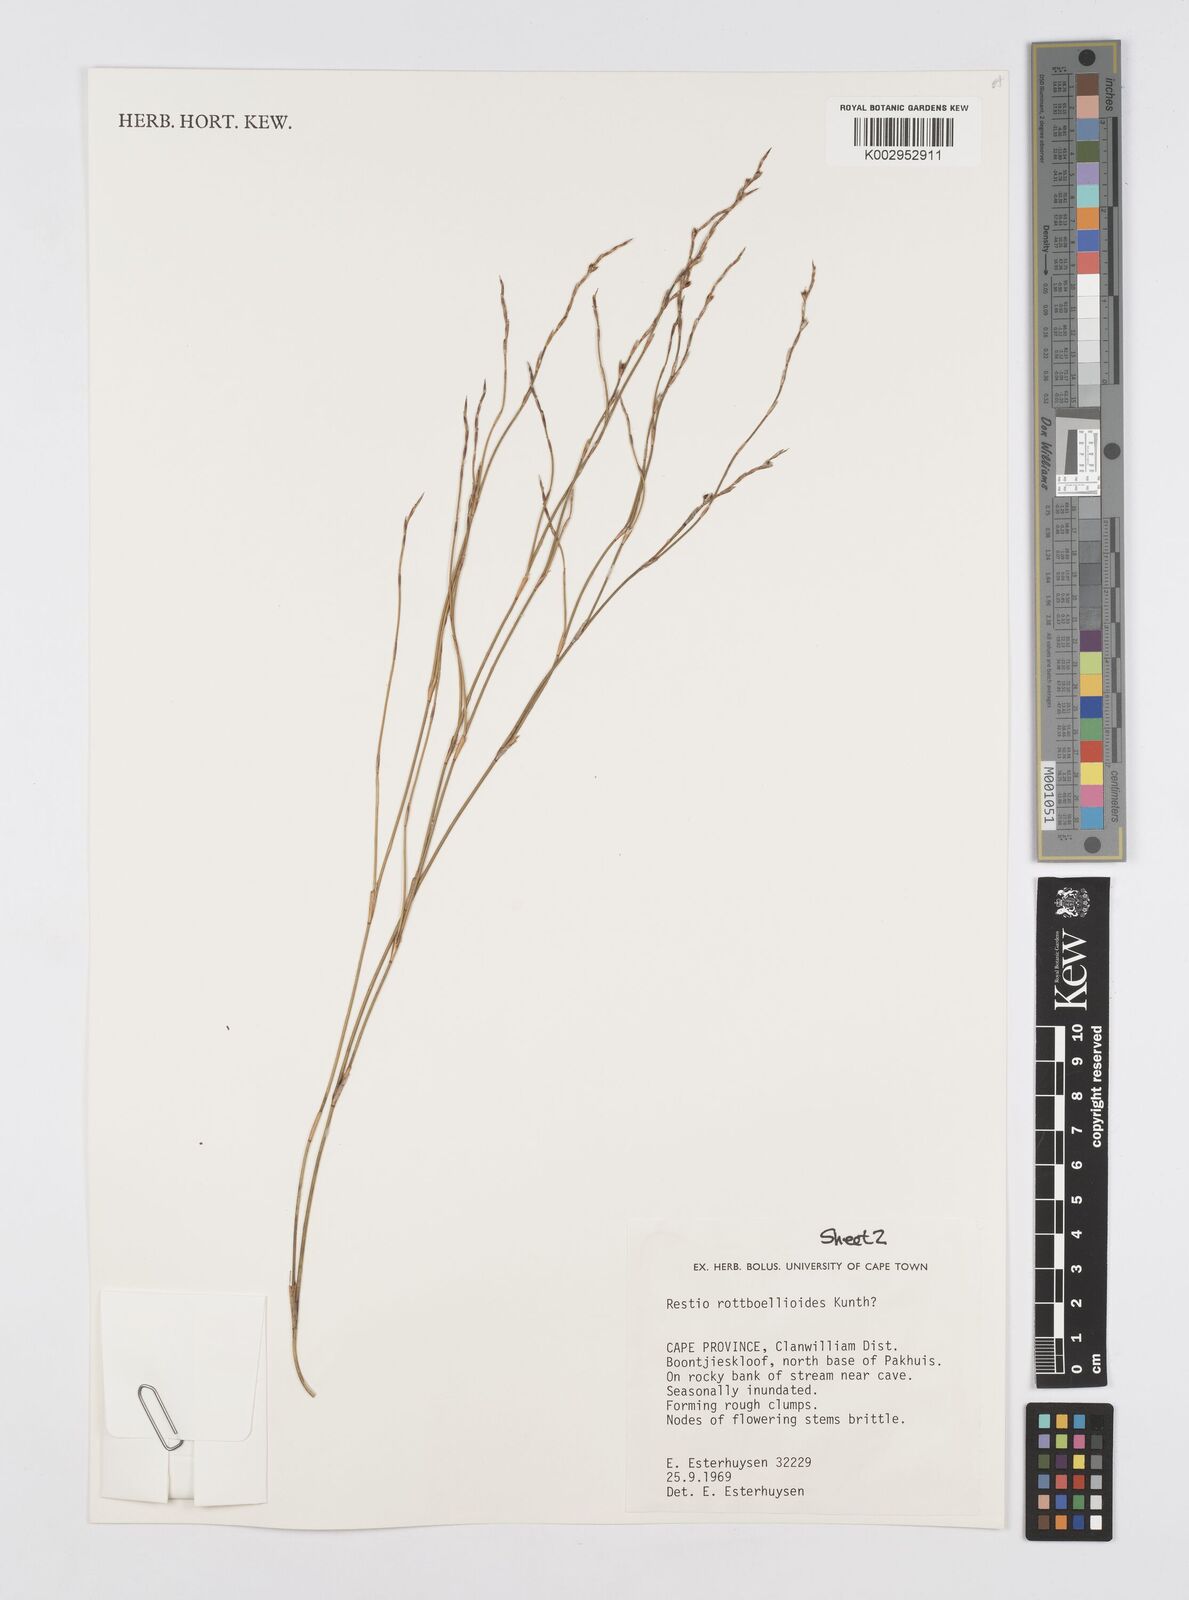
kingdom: Plantae
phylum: Tracheophyta
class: Liliopsida
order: Poales
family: Restionaceae
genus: Restio
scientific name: Restio rottboellioides
